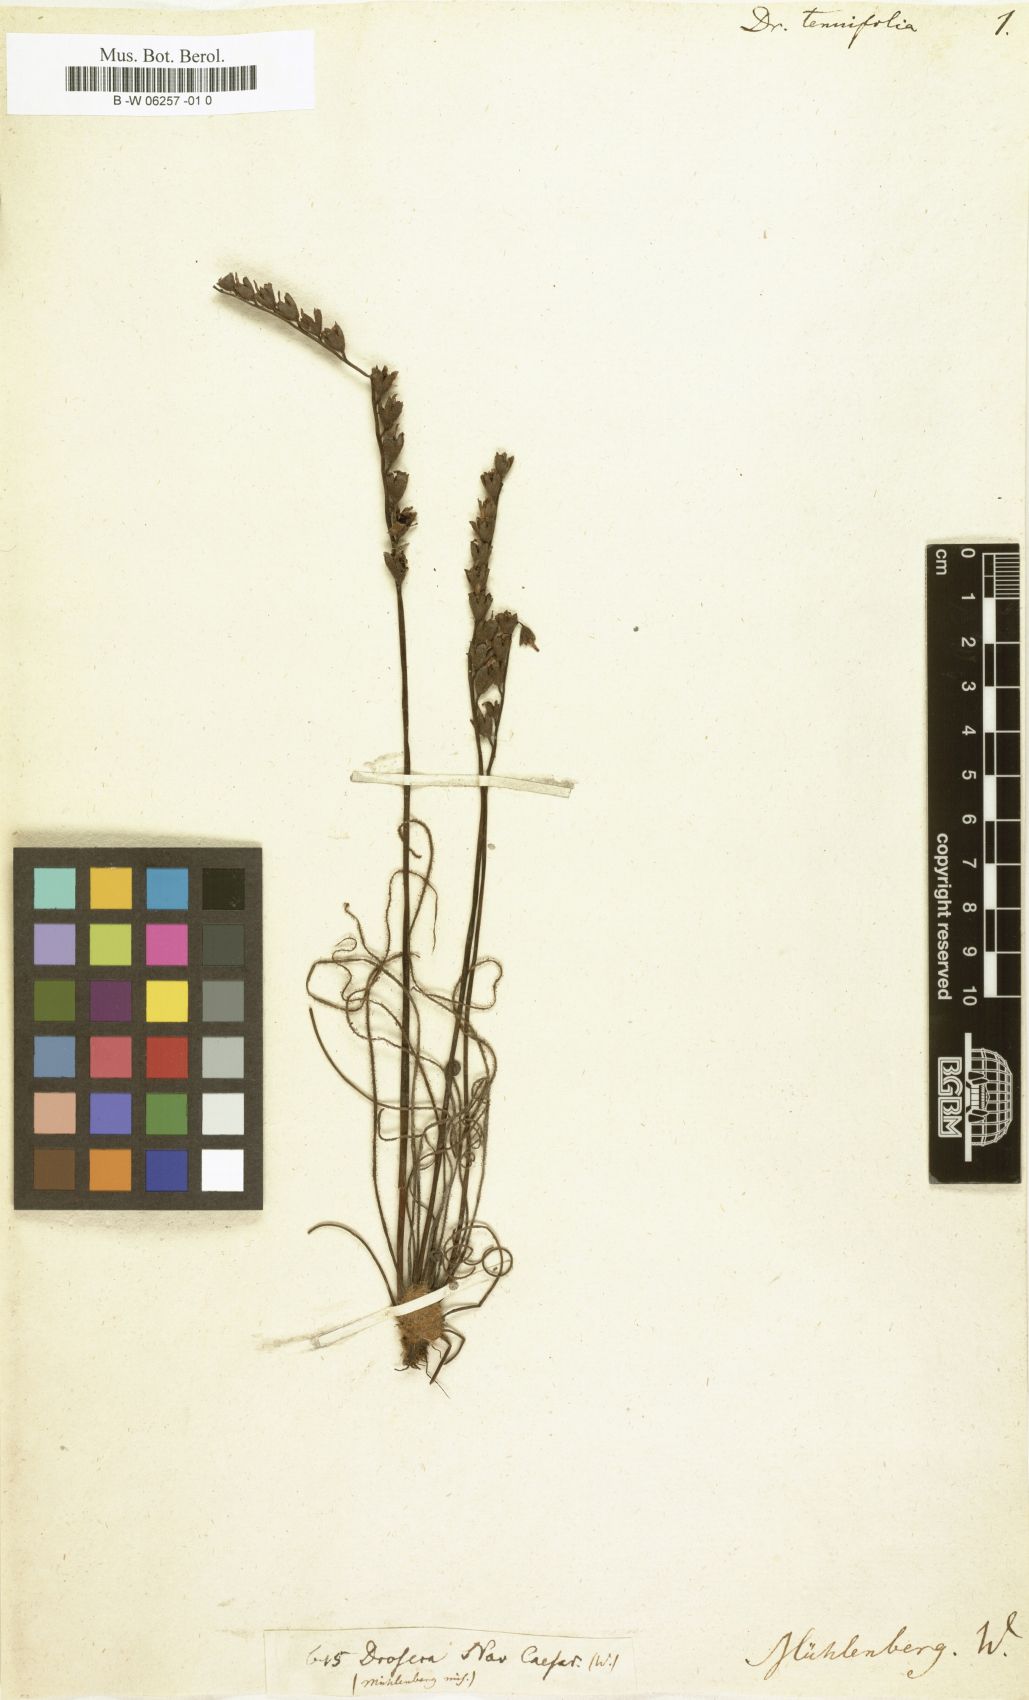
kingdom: Plantae
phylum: Tracheophyta
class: Magnoliopsida
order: Caryophyllales
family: Droseraceae
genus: Drosera
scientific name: Drosera filiformis
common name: Dew-thread
